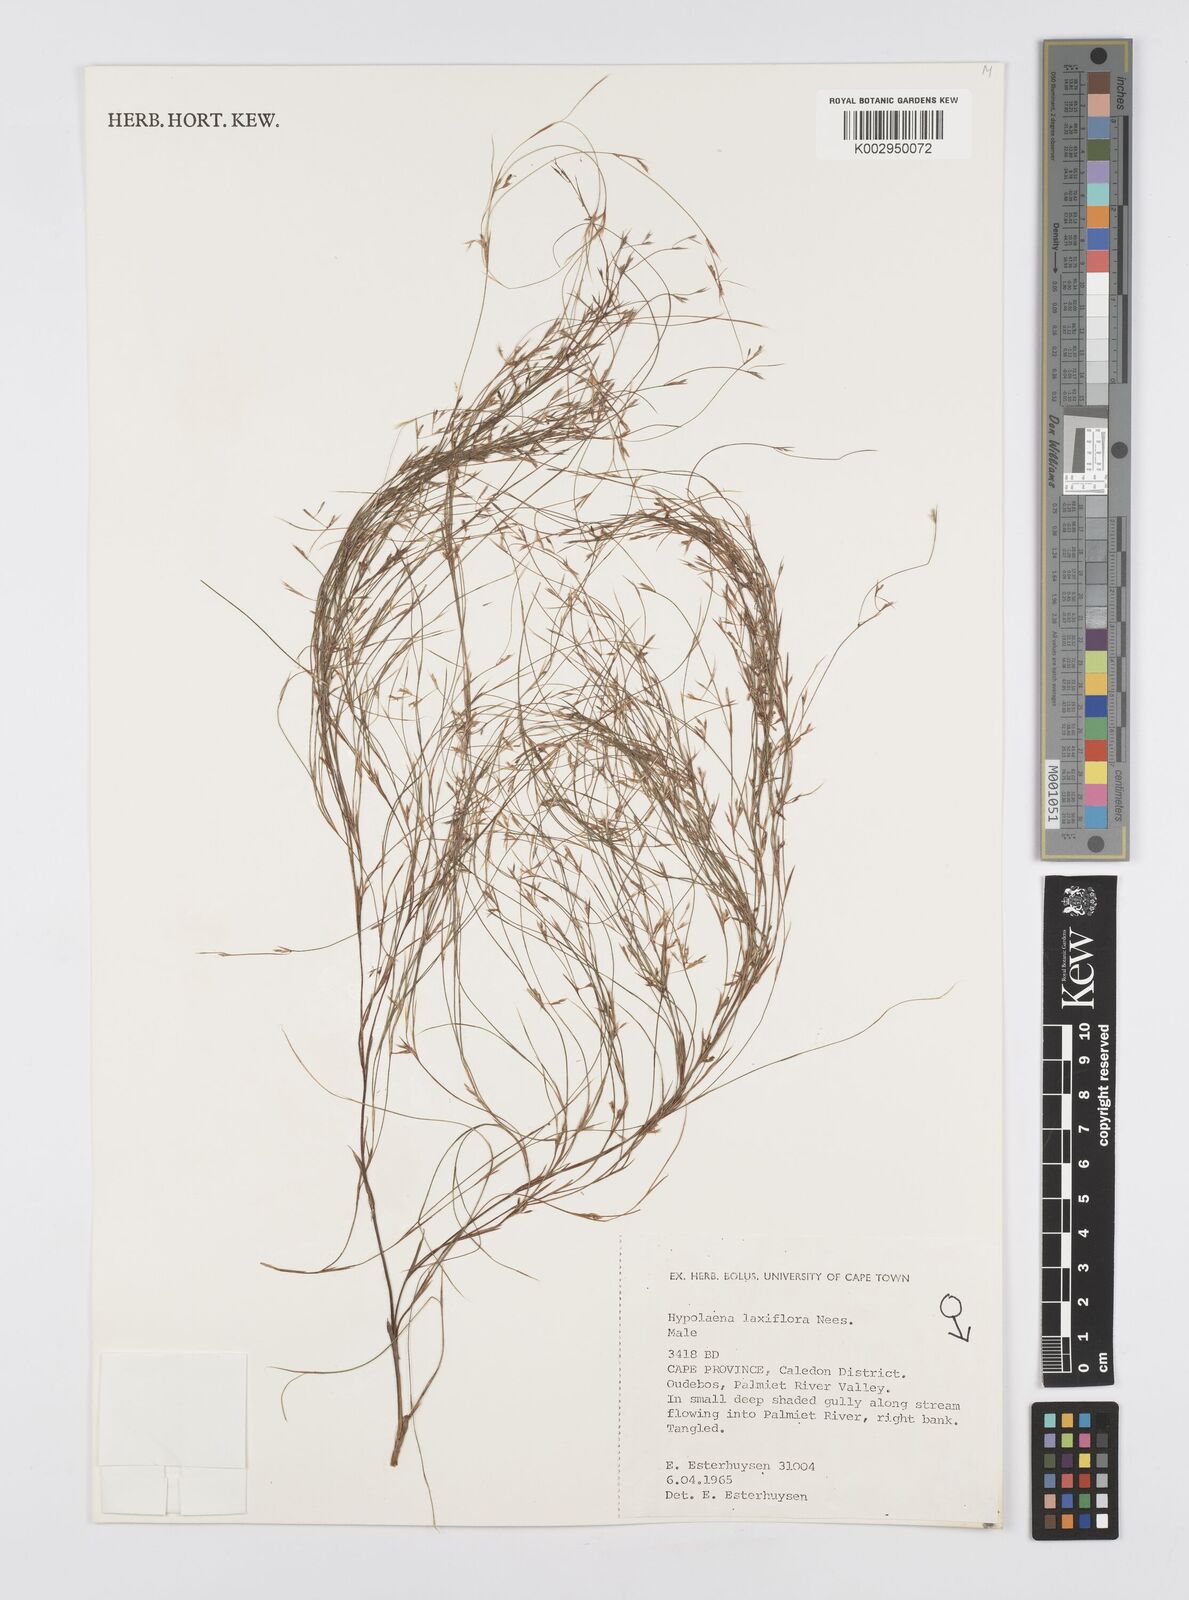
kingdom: Plantae
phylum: Tracheophyta
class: Liliopsida
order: Poales
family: Restionaceae
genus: Anthochortus
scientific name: Anthochortus laxiflorus
